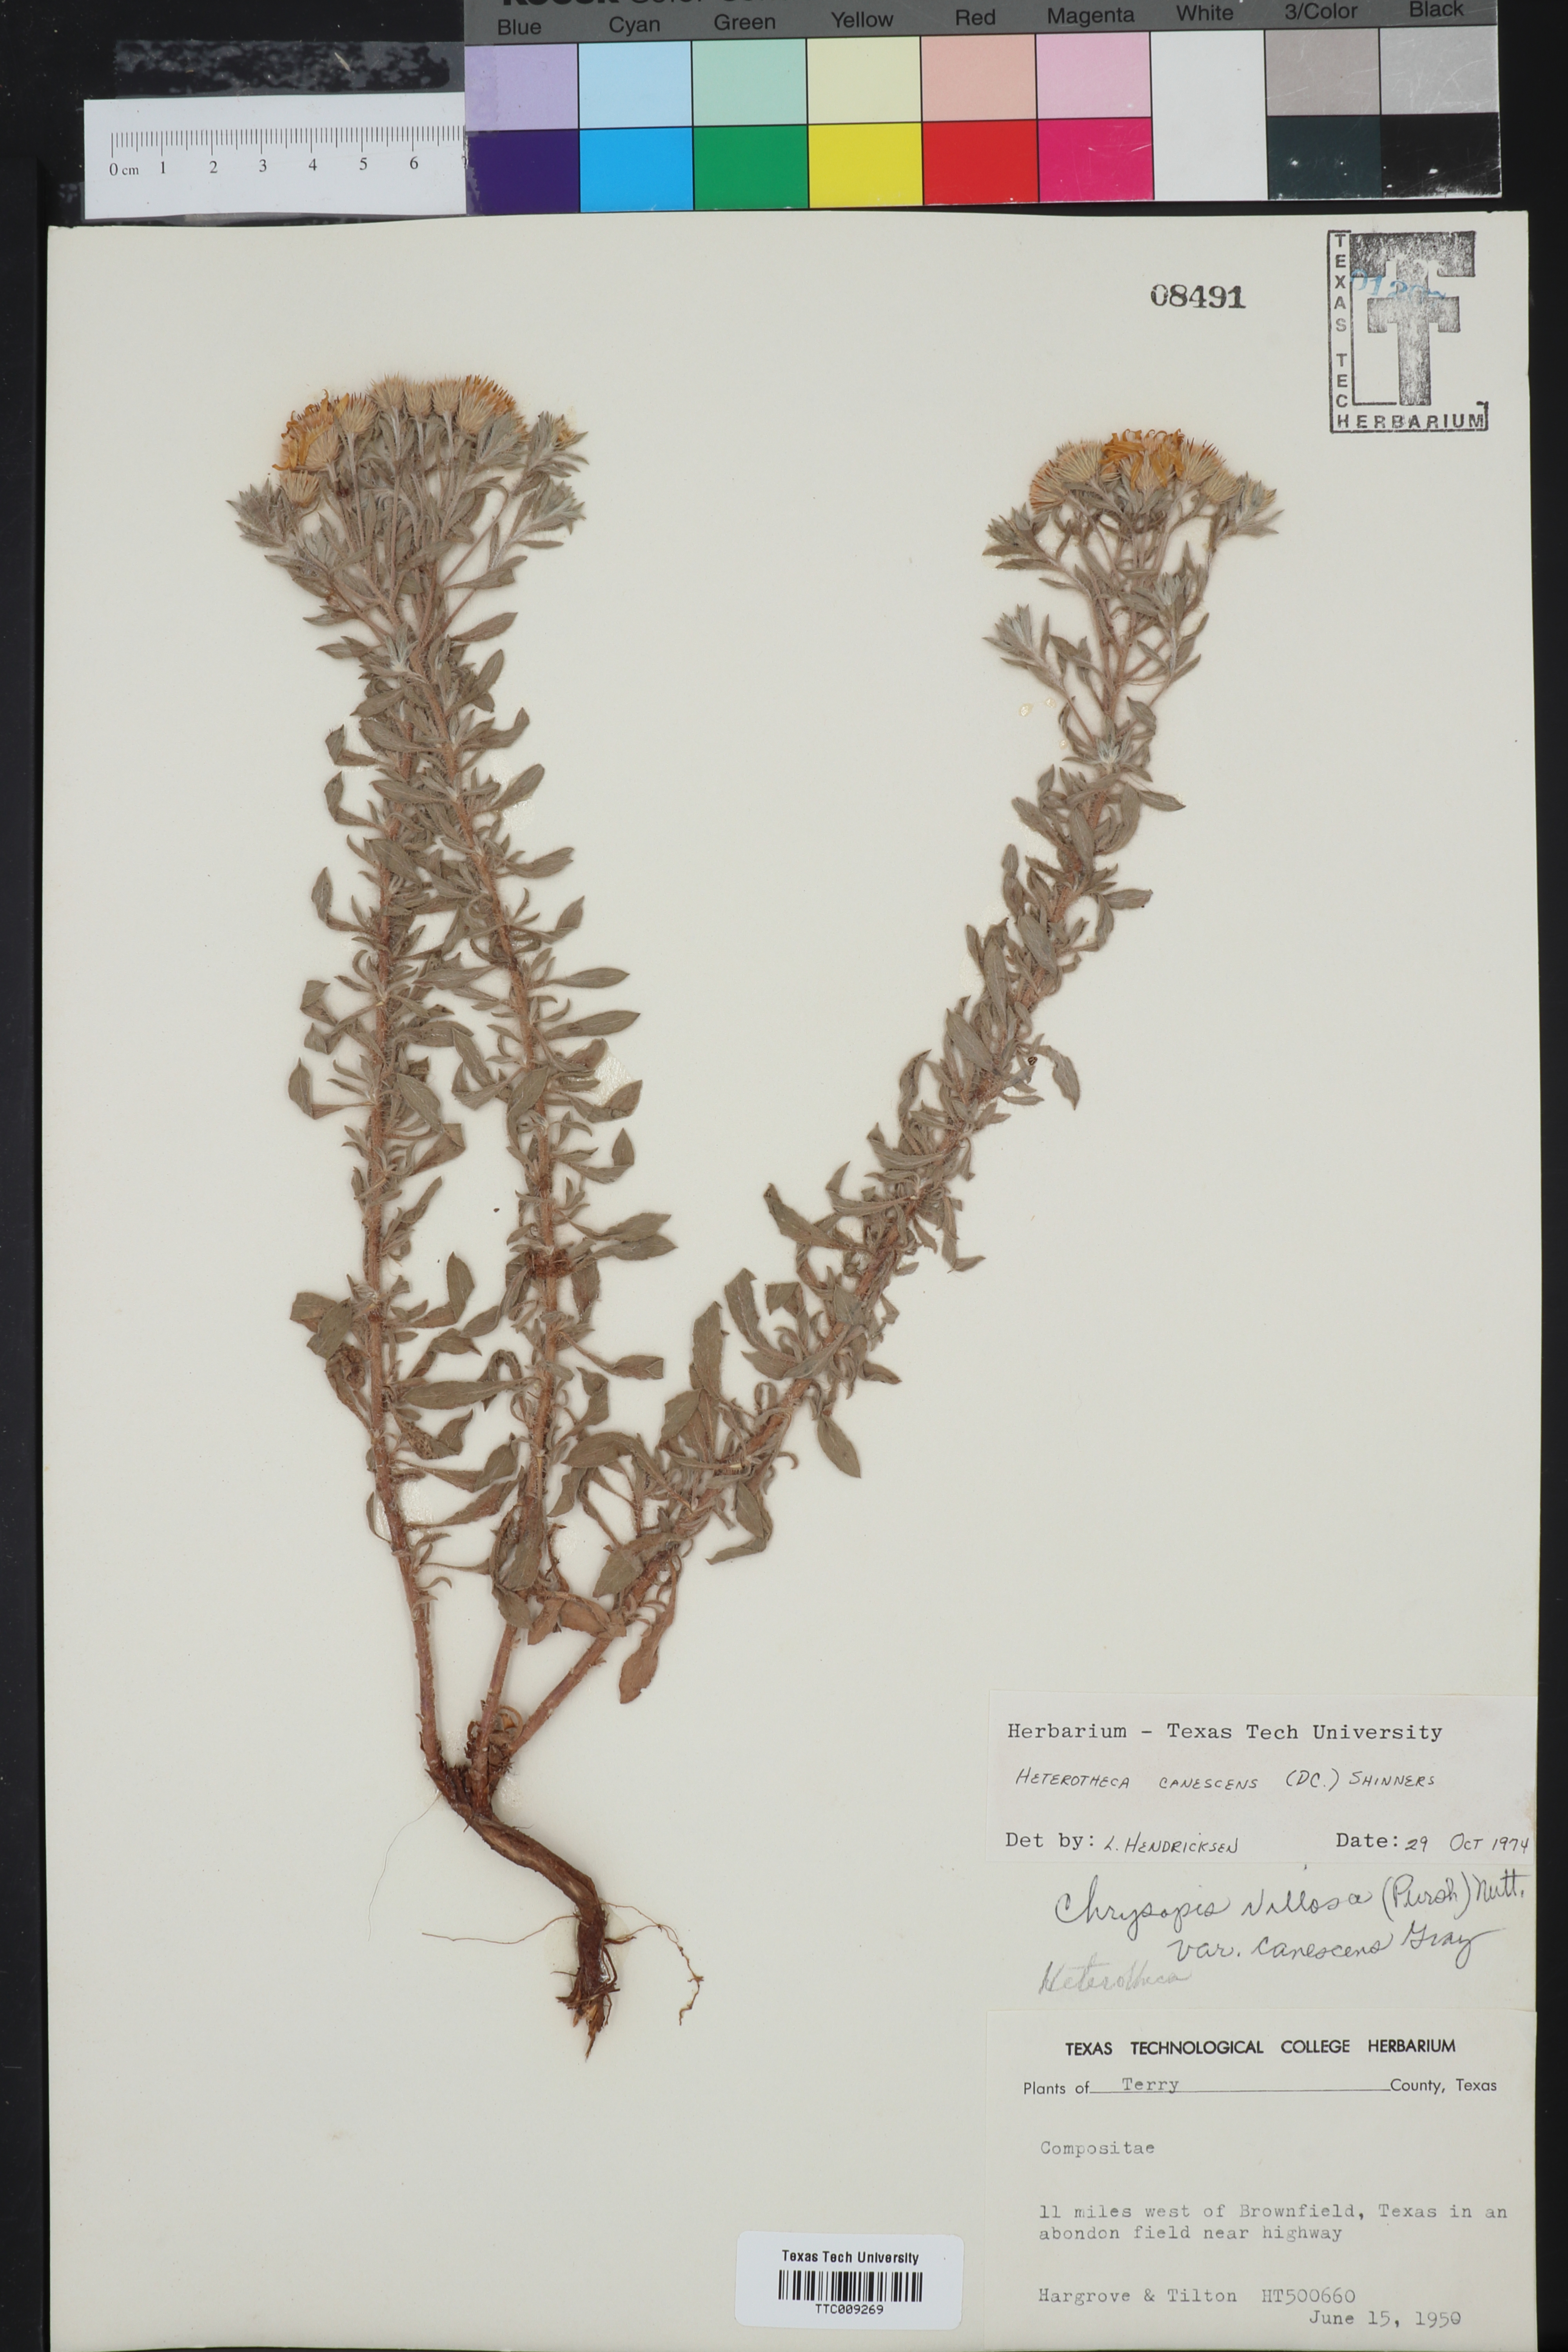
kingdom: Plantae
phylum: Tracheophyta
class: Magnoliopsida
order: Asterales
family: Asteraceae
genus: Heterotheca
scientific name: Heterotheca canescens
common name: Hoary golden-aster
